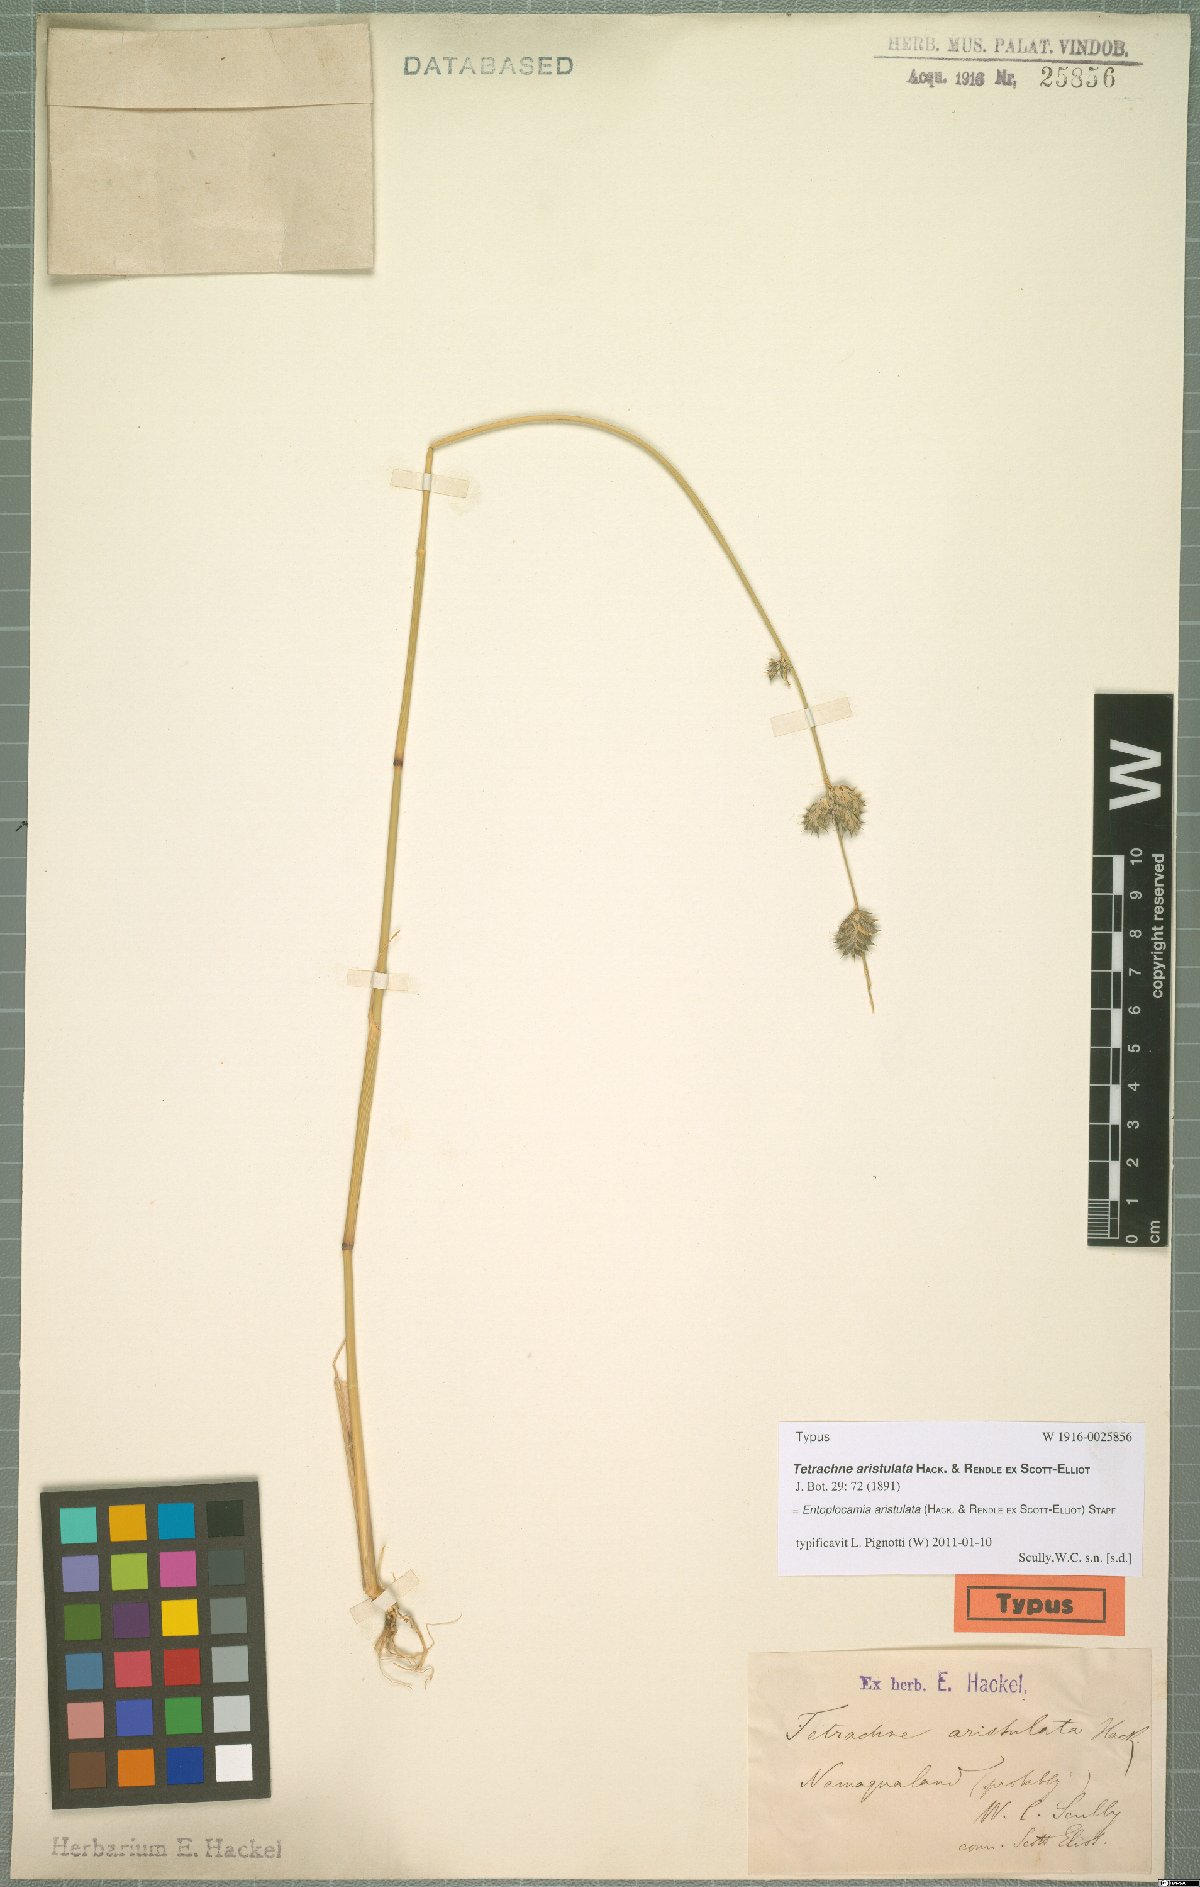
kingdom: Plantae
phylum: Tracheophyta
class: Liliopsida
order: Poales
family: Poaceae
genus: Entoplocamia
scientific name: Entoplocamia aristulata
